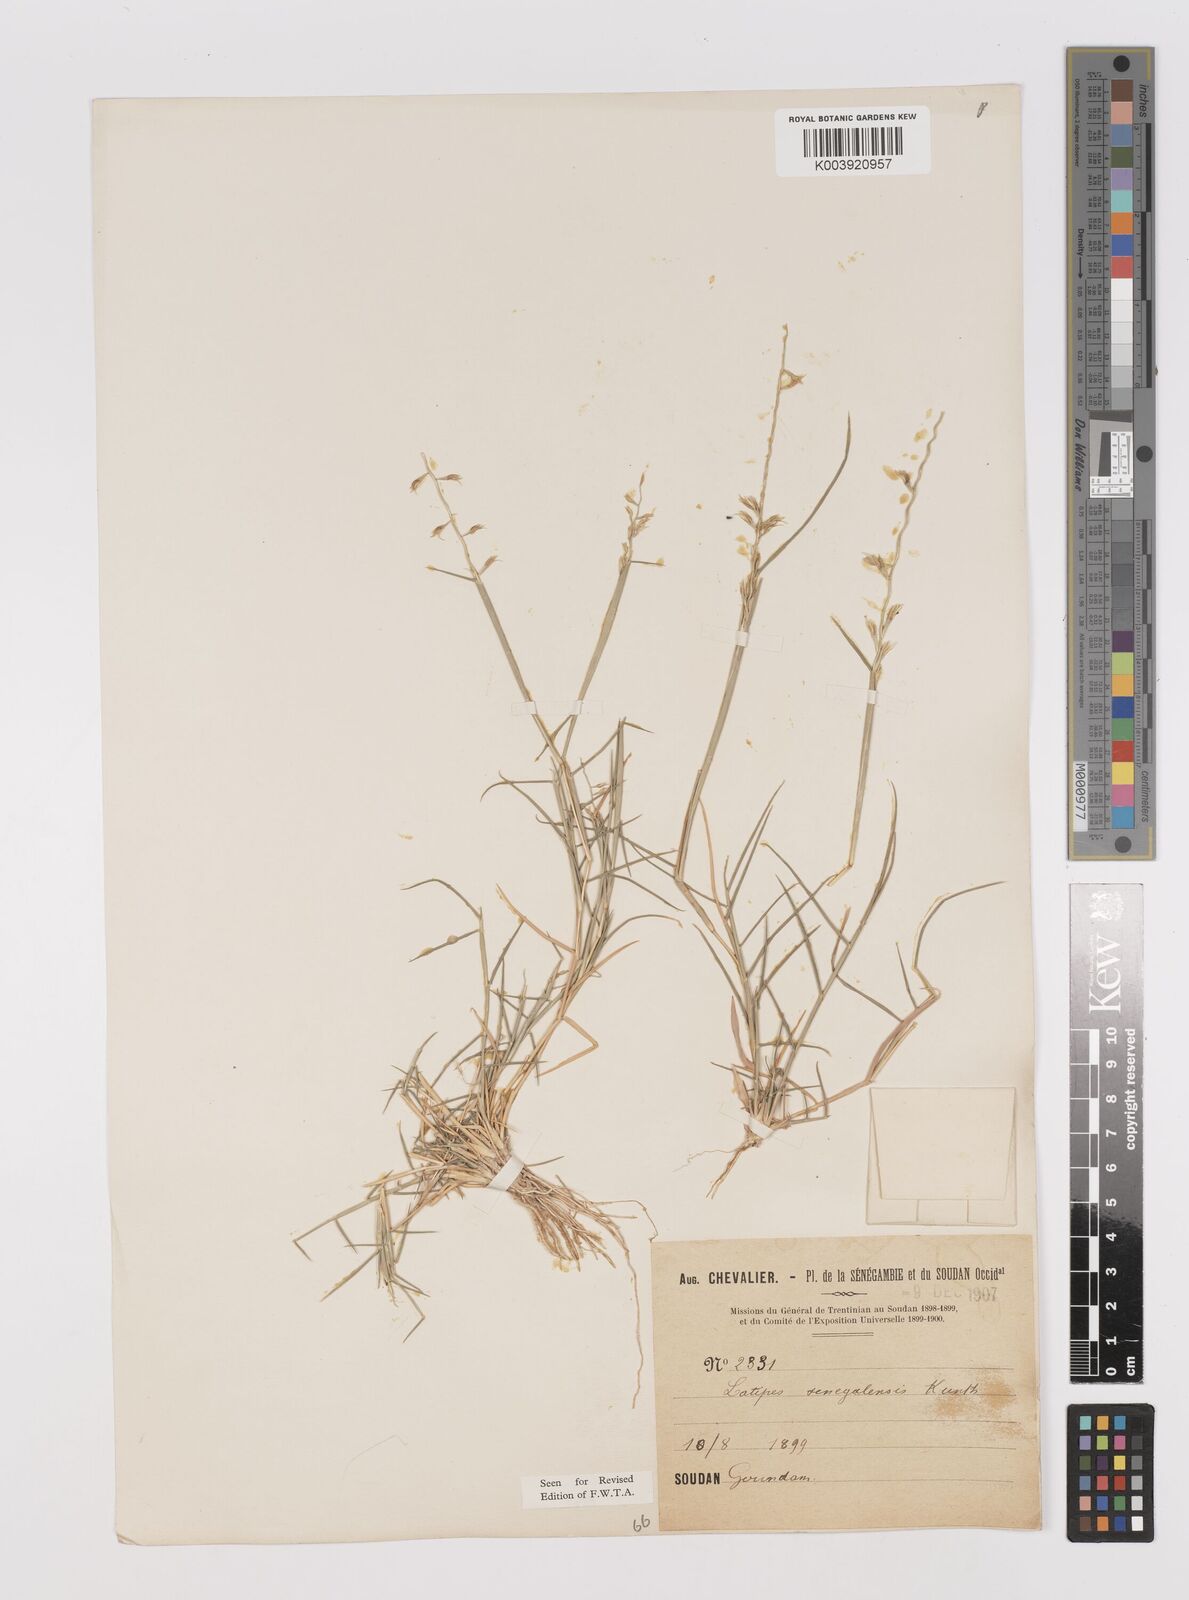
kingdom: Plantae
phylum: Tracheophyta
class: Liliopsida
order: Poales
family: Poaceae
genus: Leptothrium
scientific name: Leptothrium senegalense
